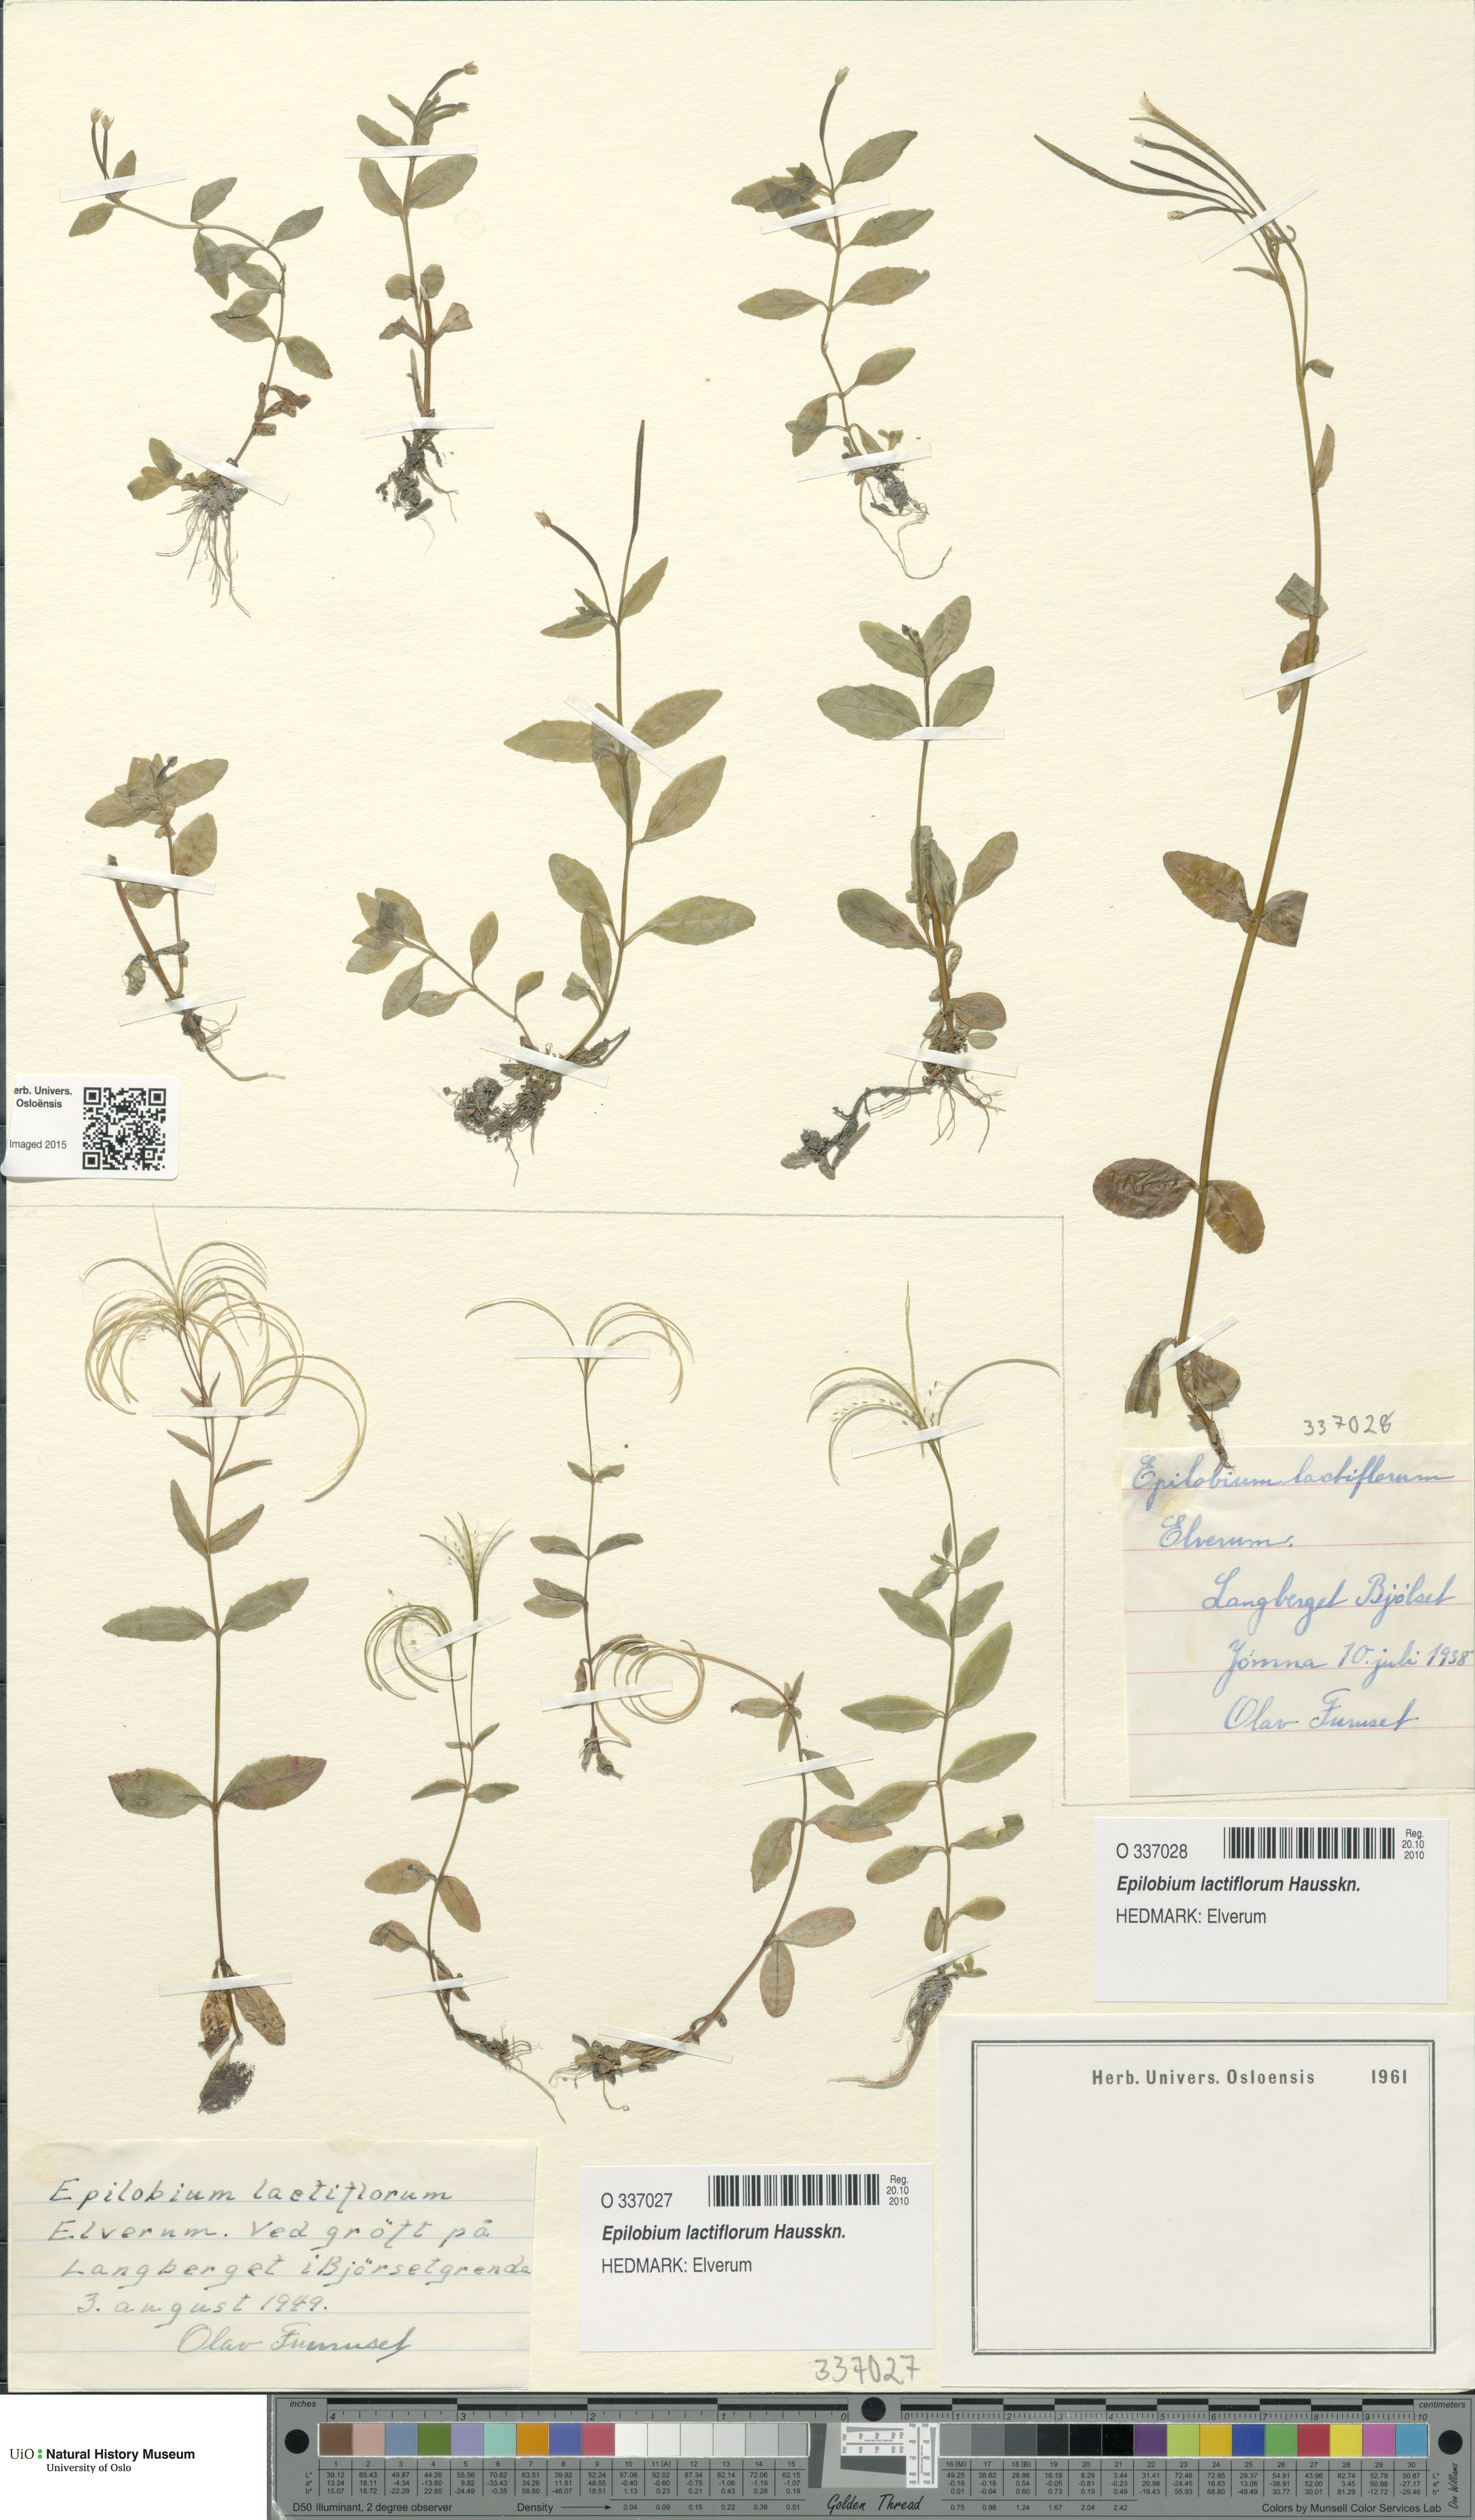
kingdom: Plantae
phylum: Tracheophyta
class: Magnoliopsida
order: Myrtales
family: Onagraceae
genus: Epilobium
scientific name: Epilobium lactiflorum
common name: Milkflower willowherb
